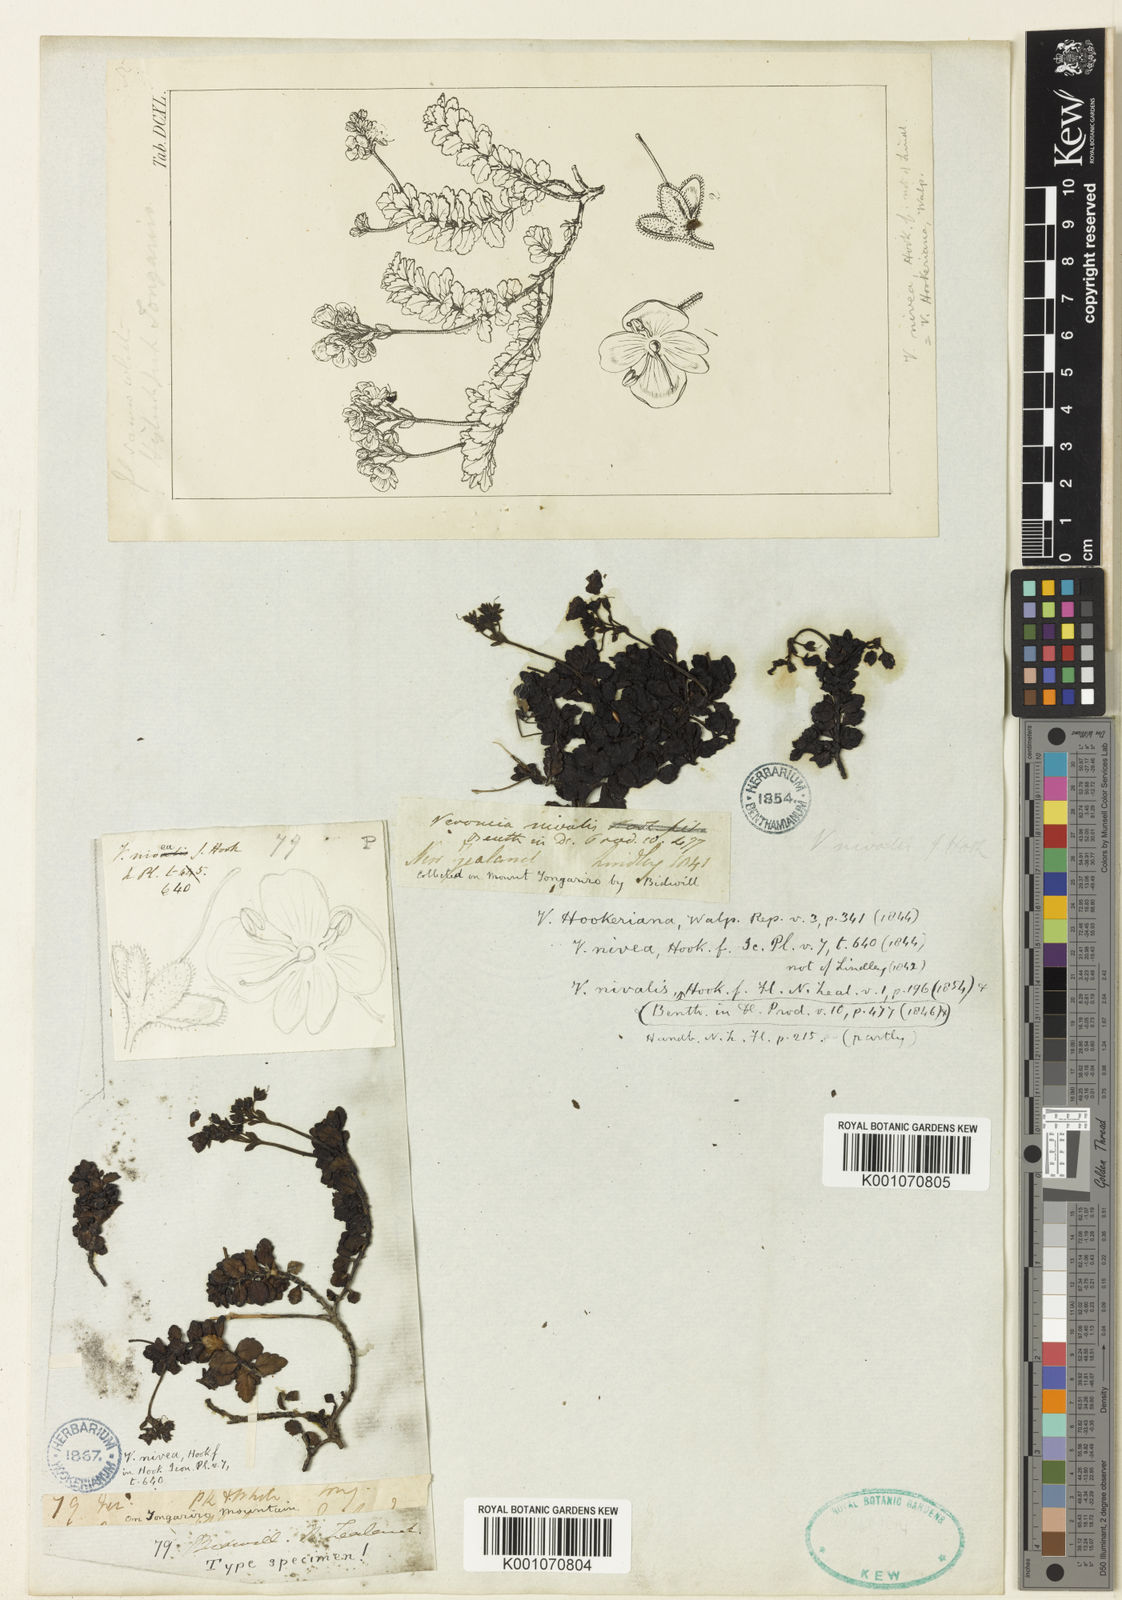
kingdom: Plantae
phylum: Tracheophyta
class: Magnoliopsida
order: Lamiales
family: Plantaginaceae
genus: Veronica
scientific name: Veronica hookeriana
